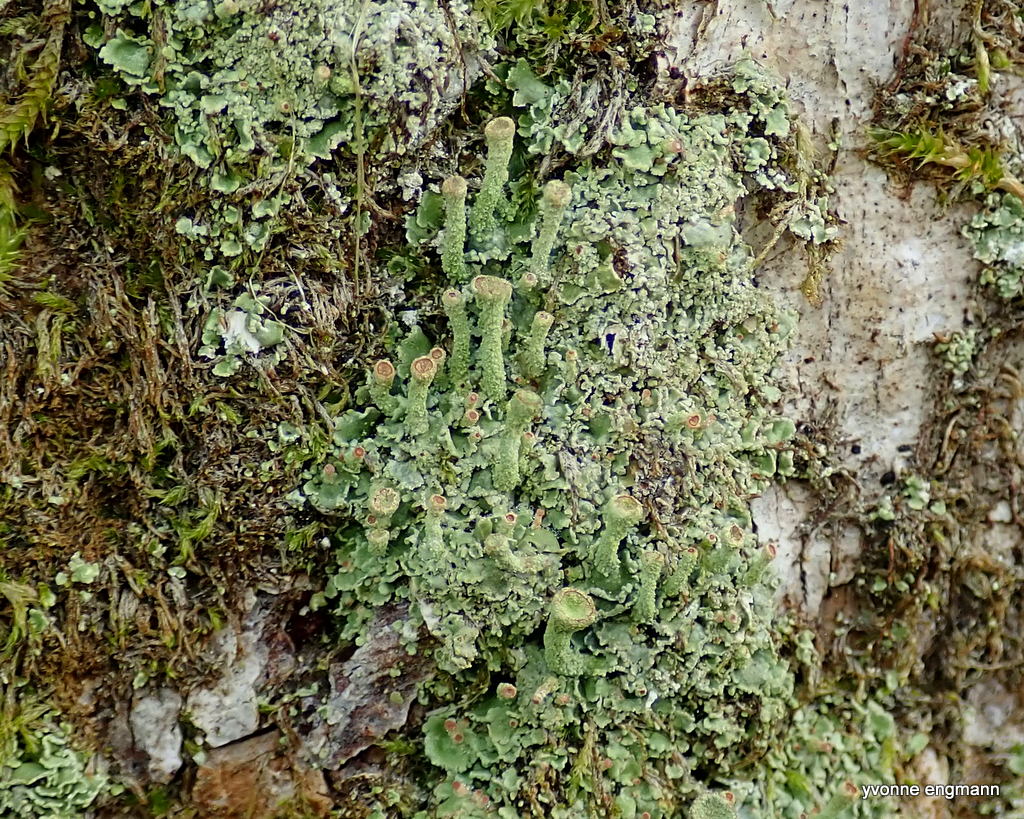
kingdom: Fungi
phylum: Ascomycota
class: Lecanoromycetes
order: Lecanorales
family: Cladoniaceae
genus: Cladonia
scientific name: Cladonia chlorophaea
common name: Mealy pixie cup
